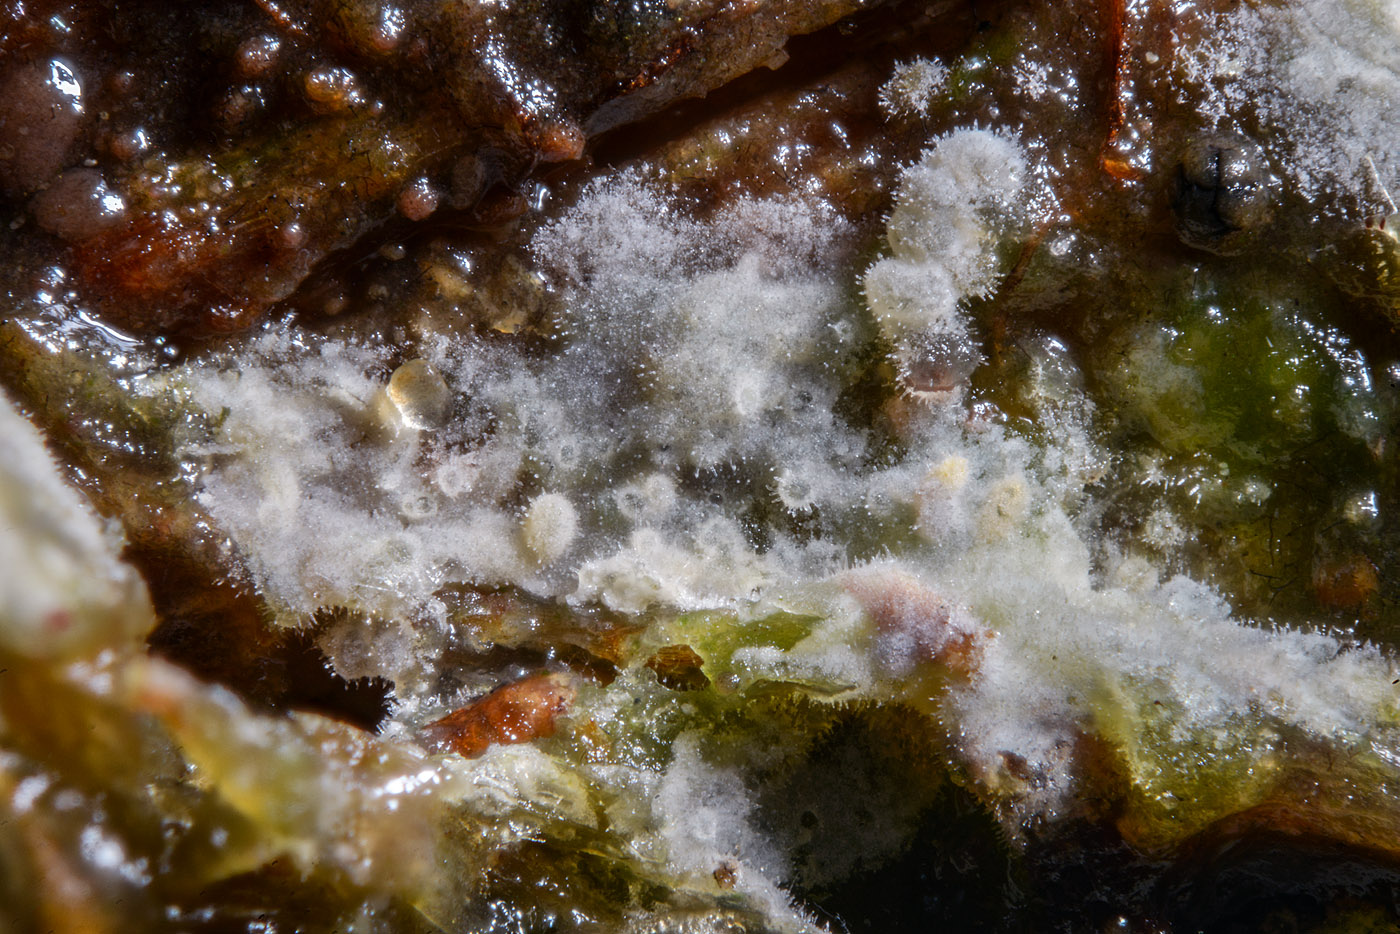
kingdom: Fungi
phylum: Basidiomycota
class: Agaricomycetes
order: Hymenochaetales
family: Hymenochaetaceae
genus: Tubulicrinis
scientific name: Tubulicrinis subulatus
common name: spids nålehinde
